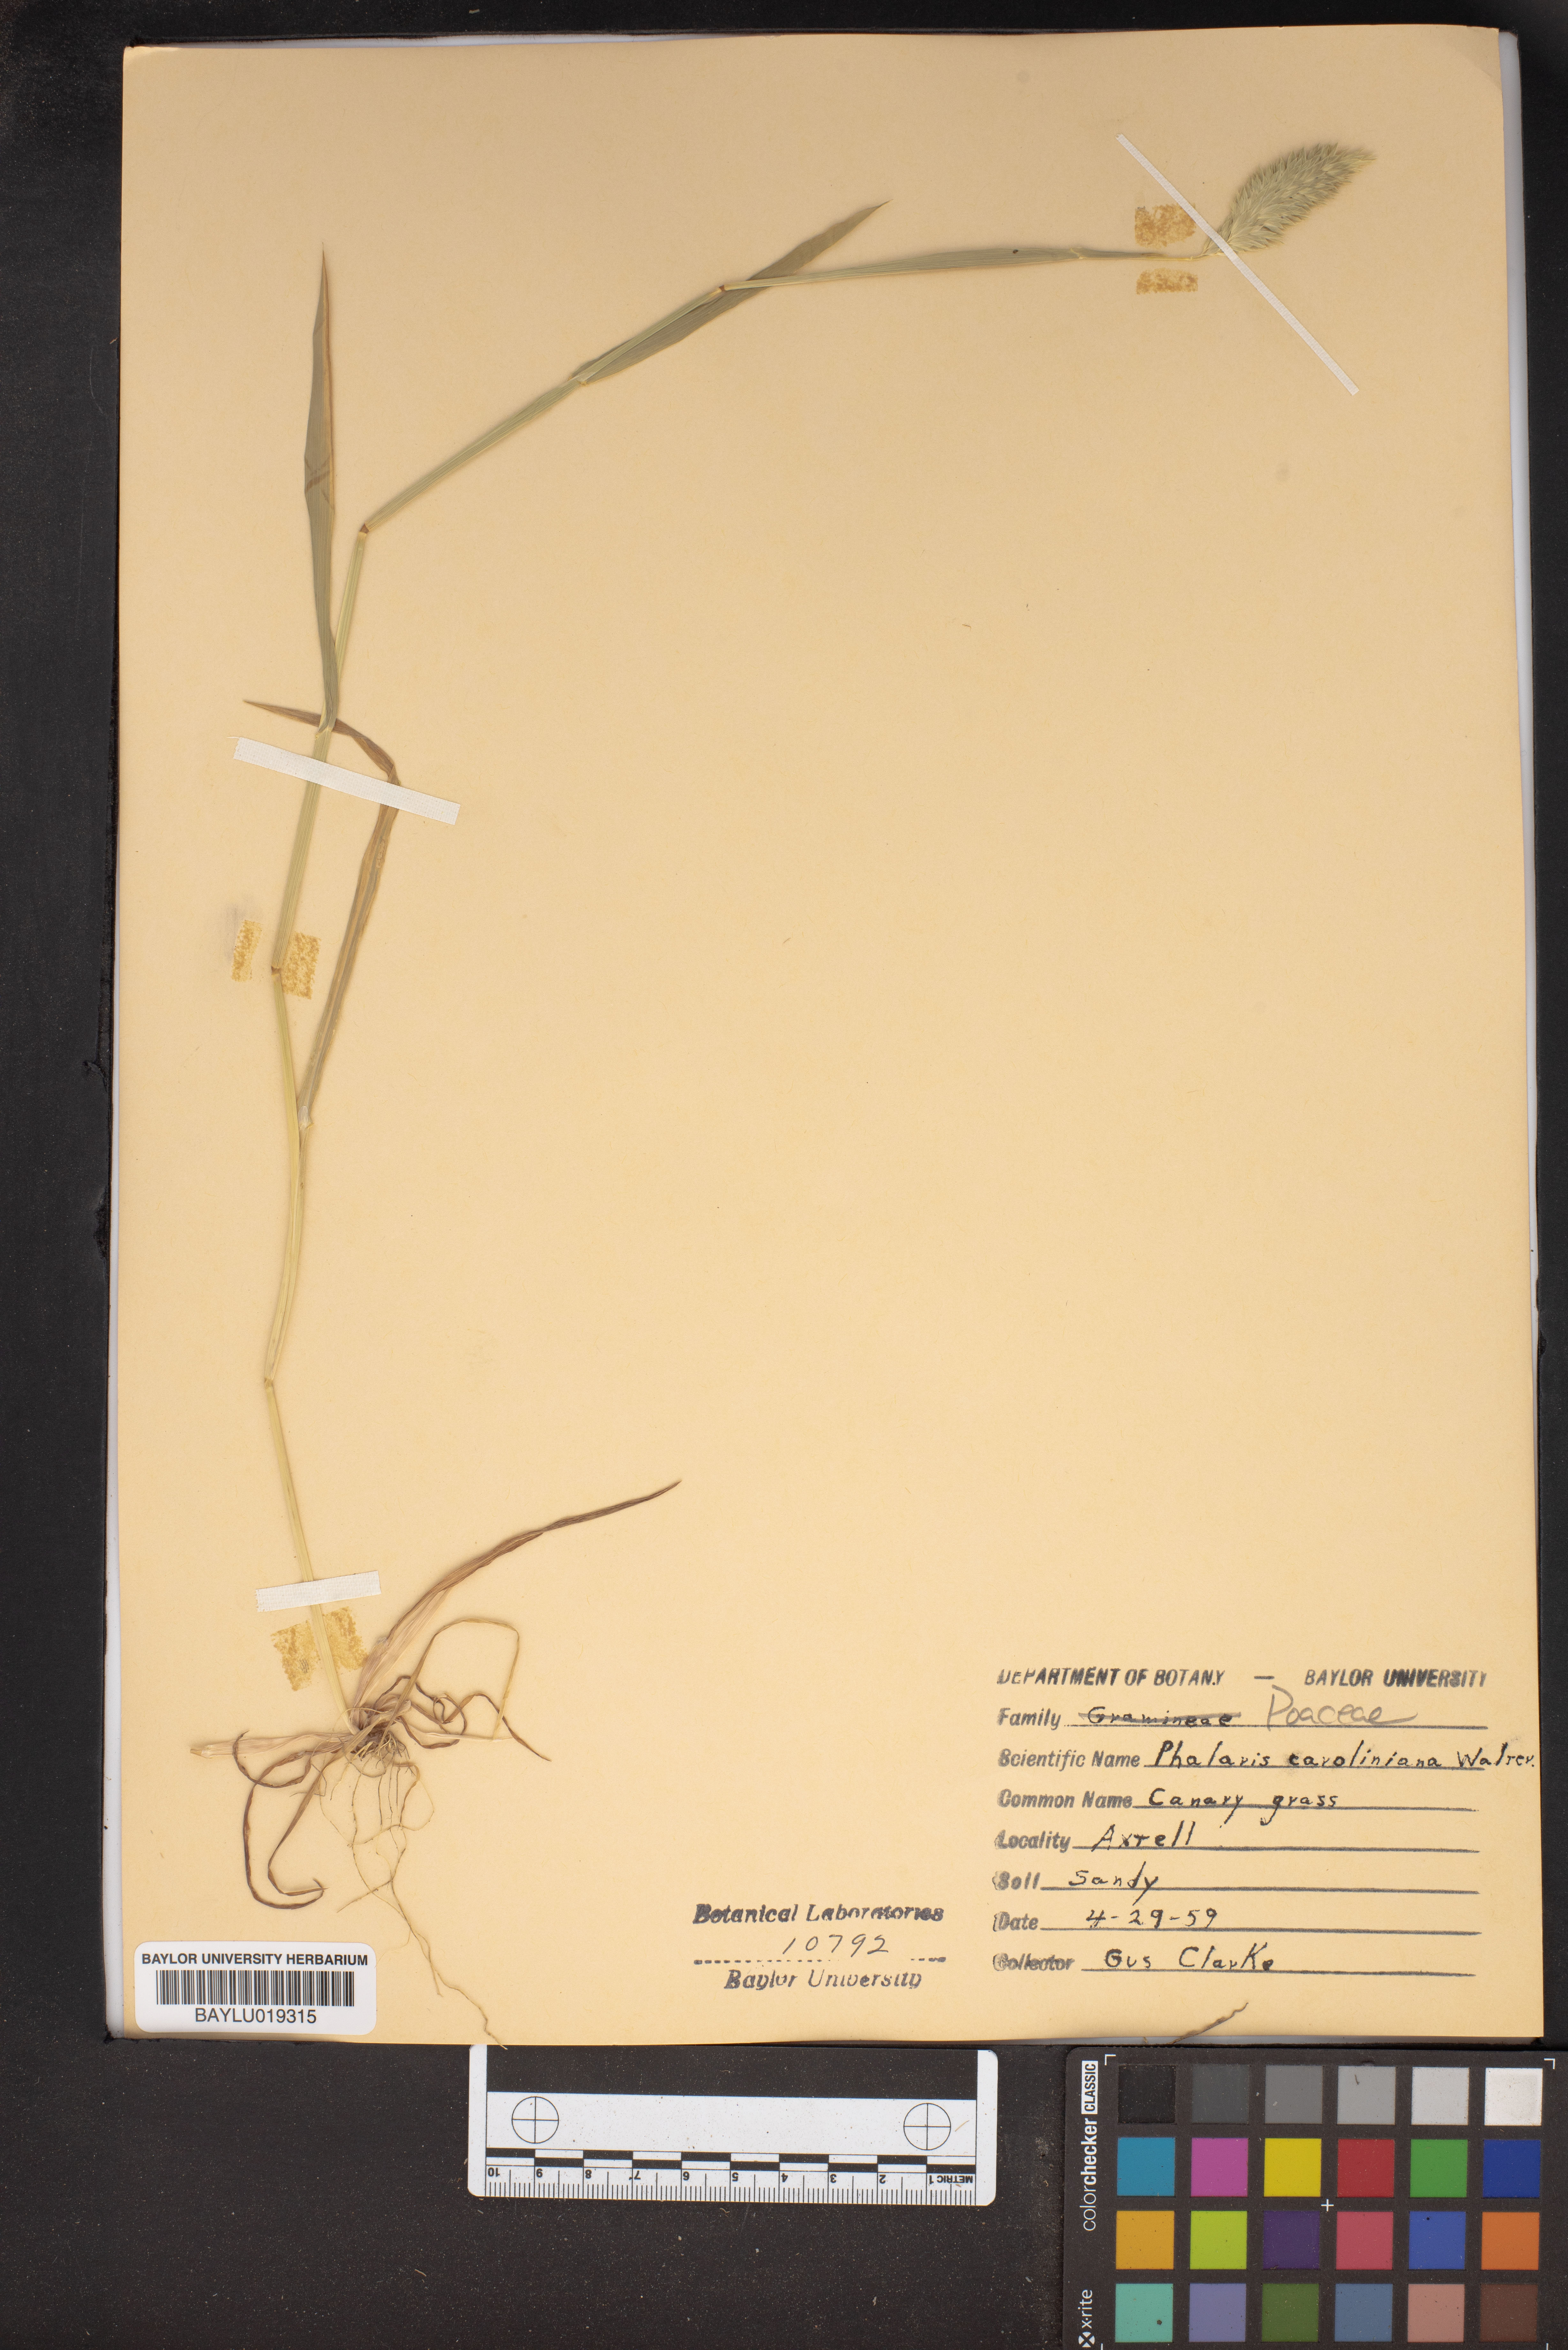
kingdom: Plantae
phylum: Tracheophyta
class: Liliopsida
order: Poales
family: Poaceae
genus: Phalaris
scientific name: Phalaris caroliniana
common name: May grass
